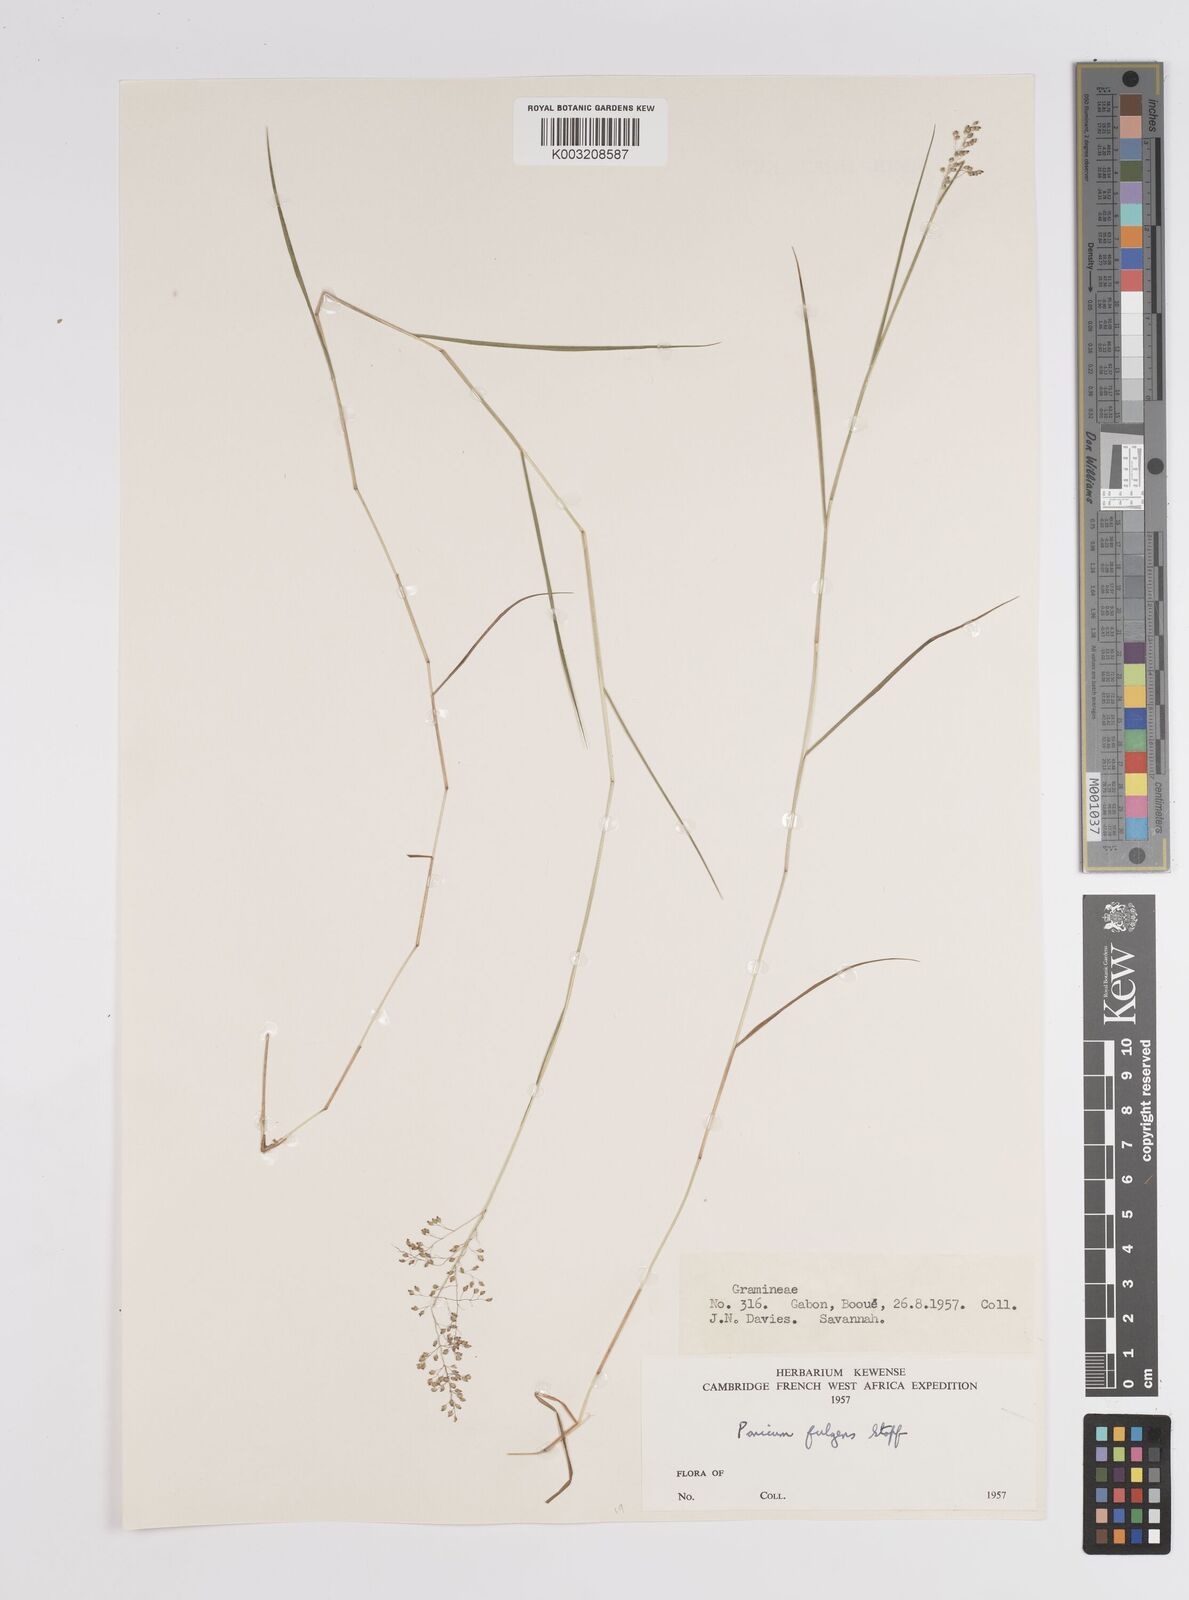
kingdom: Plantae
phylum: Tracheophyta
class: Liliopsida
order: Poales
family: Poaceae
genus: Trichanthecium
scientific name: Trichanthecium nervatum
